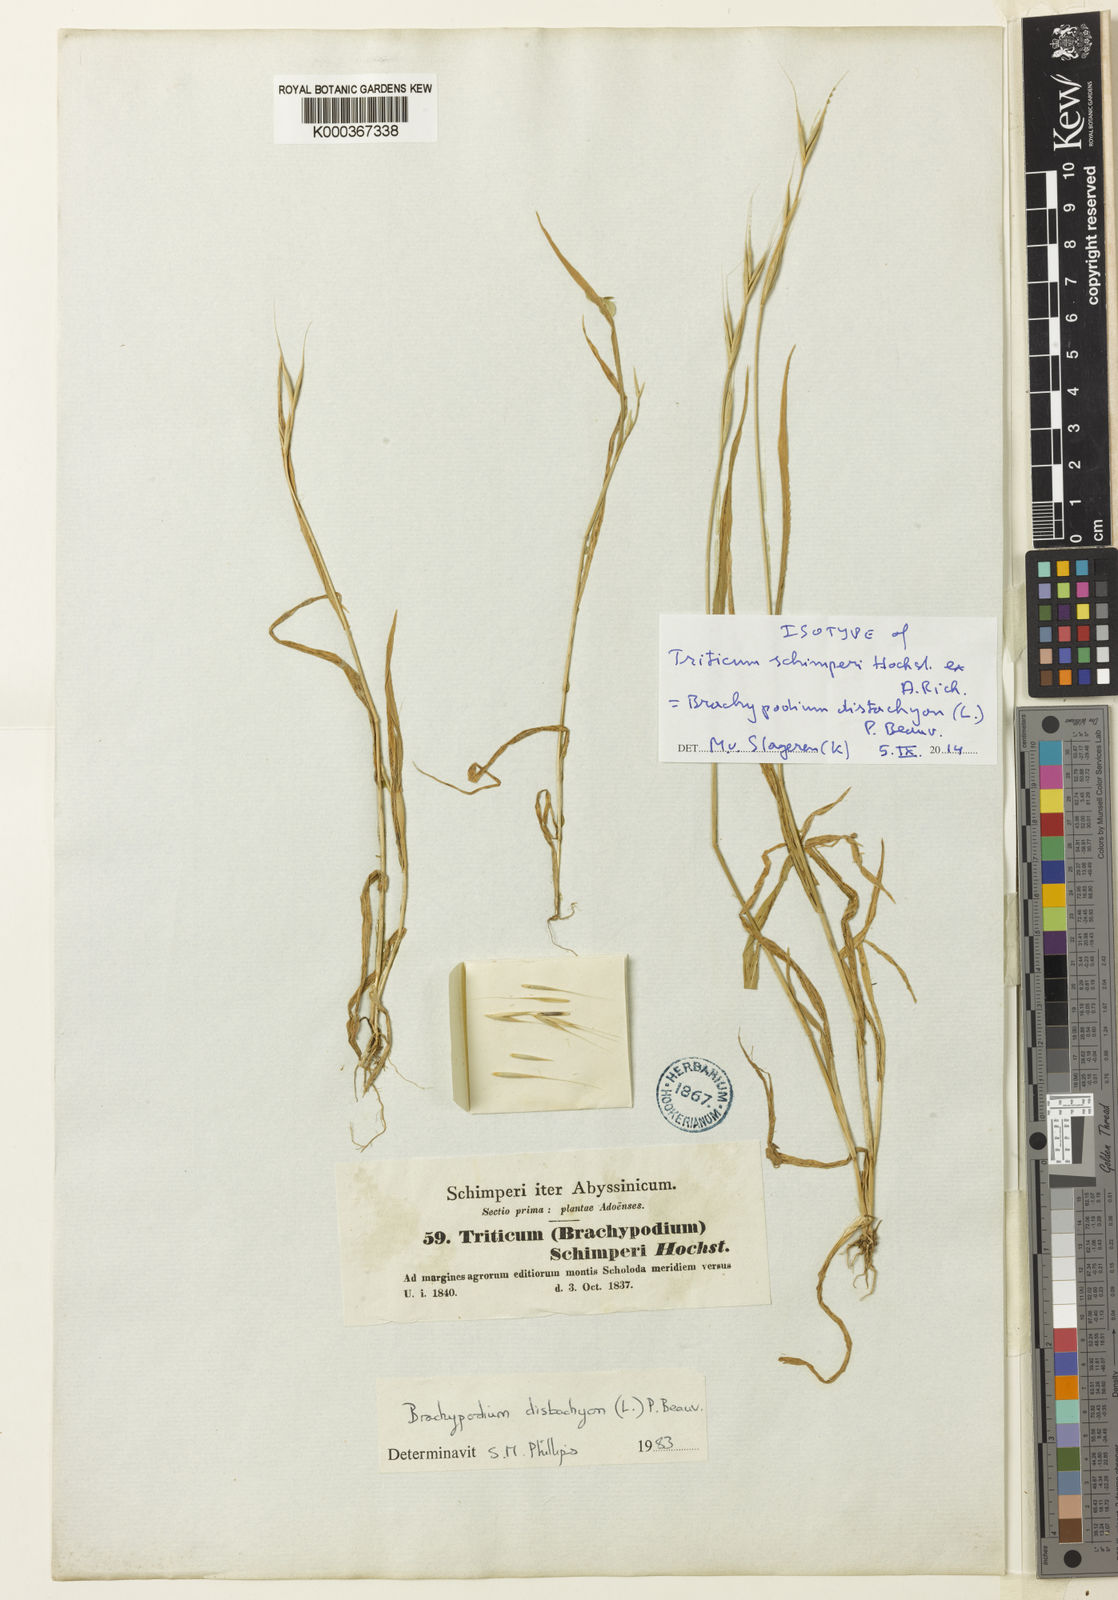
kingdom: Plantae
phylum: Tracheophyta
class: Liliopsida
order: Poales
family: Poaceae
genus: Brachypodium
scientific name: Brachypodium distachyon
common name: Stiff brome
